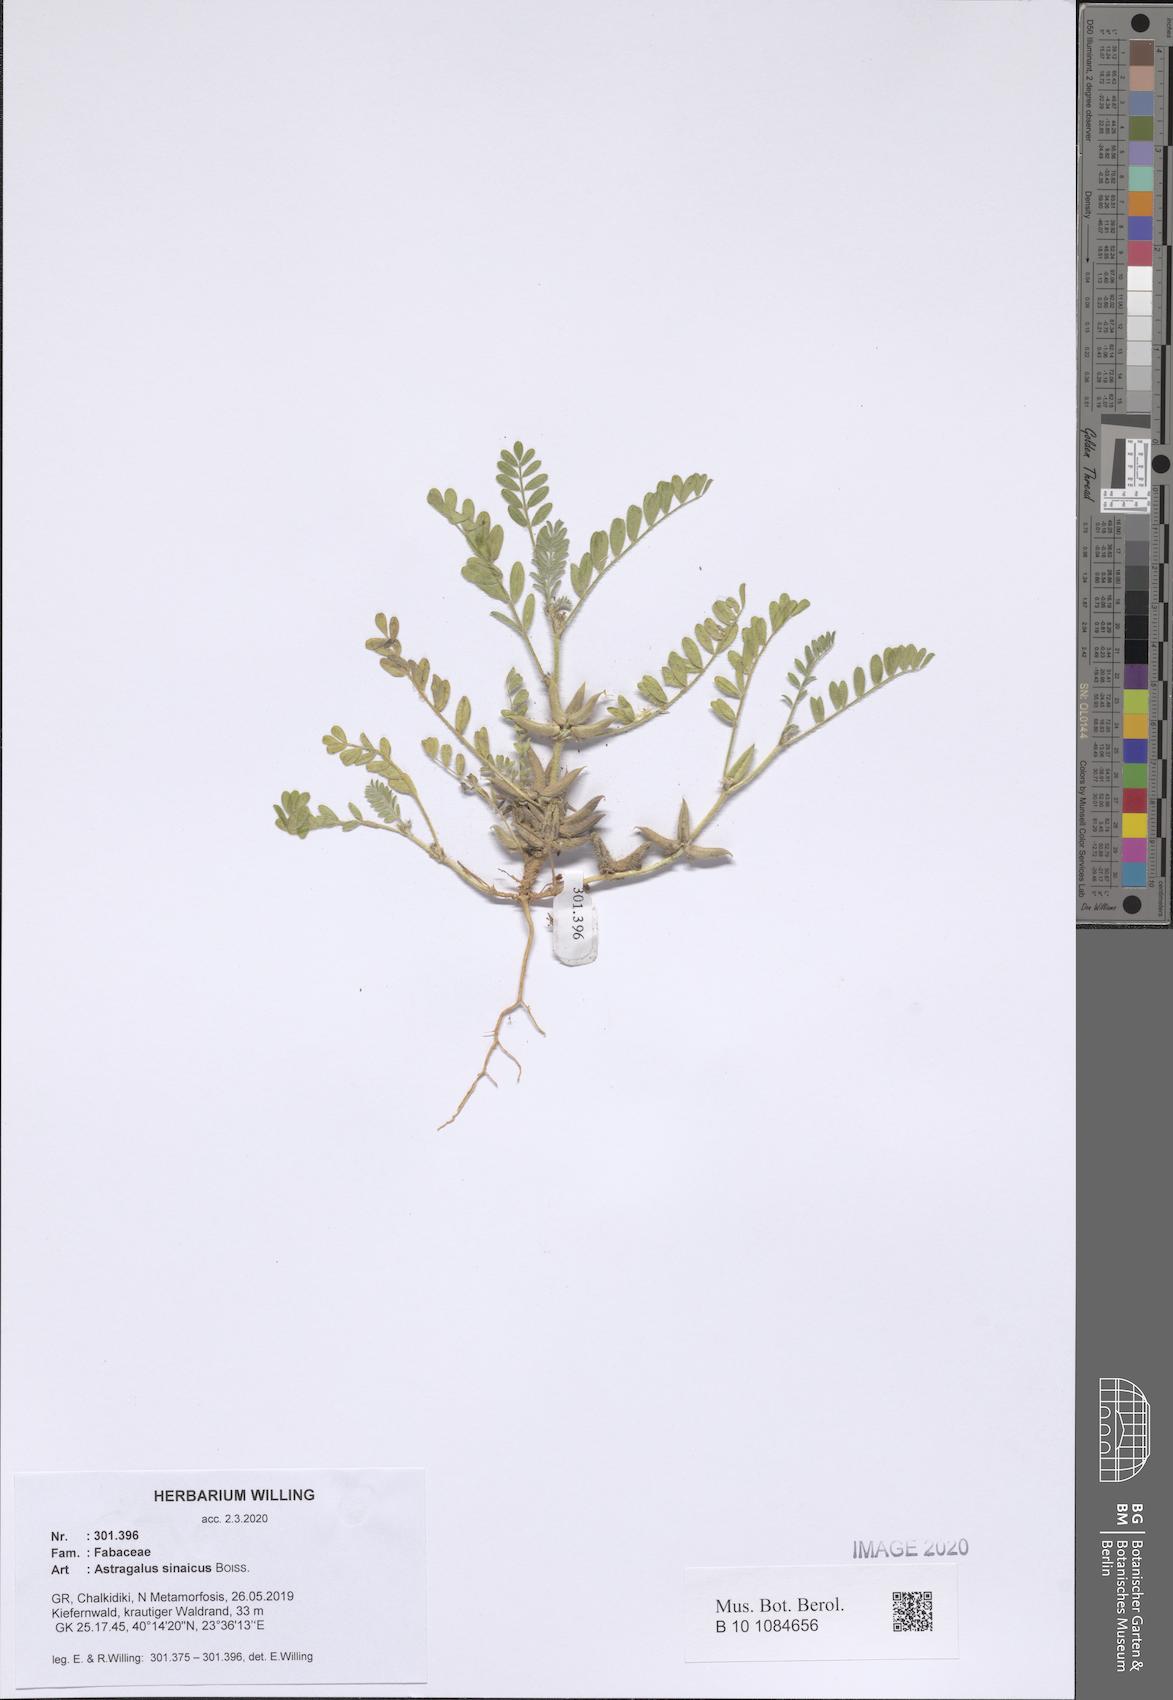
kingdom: Plantae
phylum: Tracheophyta
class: Magnoliopsida
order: Fabales
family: Fabaceae
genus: Astragalus
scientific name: Astragalus sinaicus
